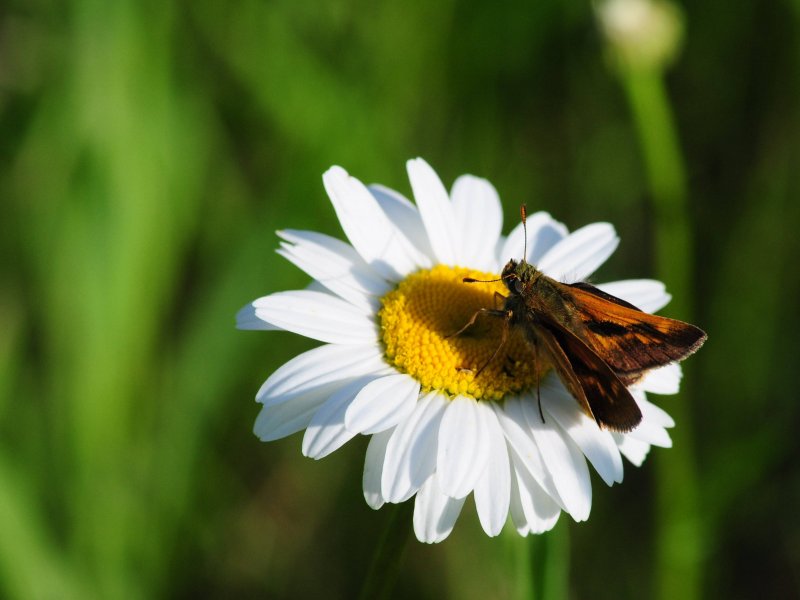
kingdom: Animalia
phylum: Arthropoda
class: Insecta
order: Lepidoptera
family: Hesperiidae
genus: Polites
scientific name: Polites
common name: Long Dash Skipper
